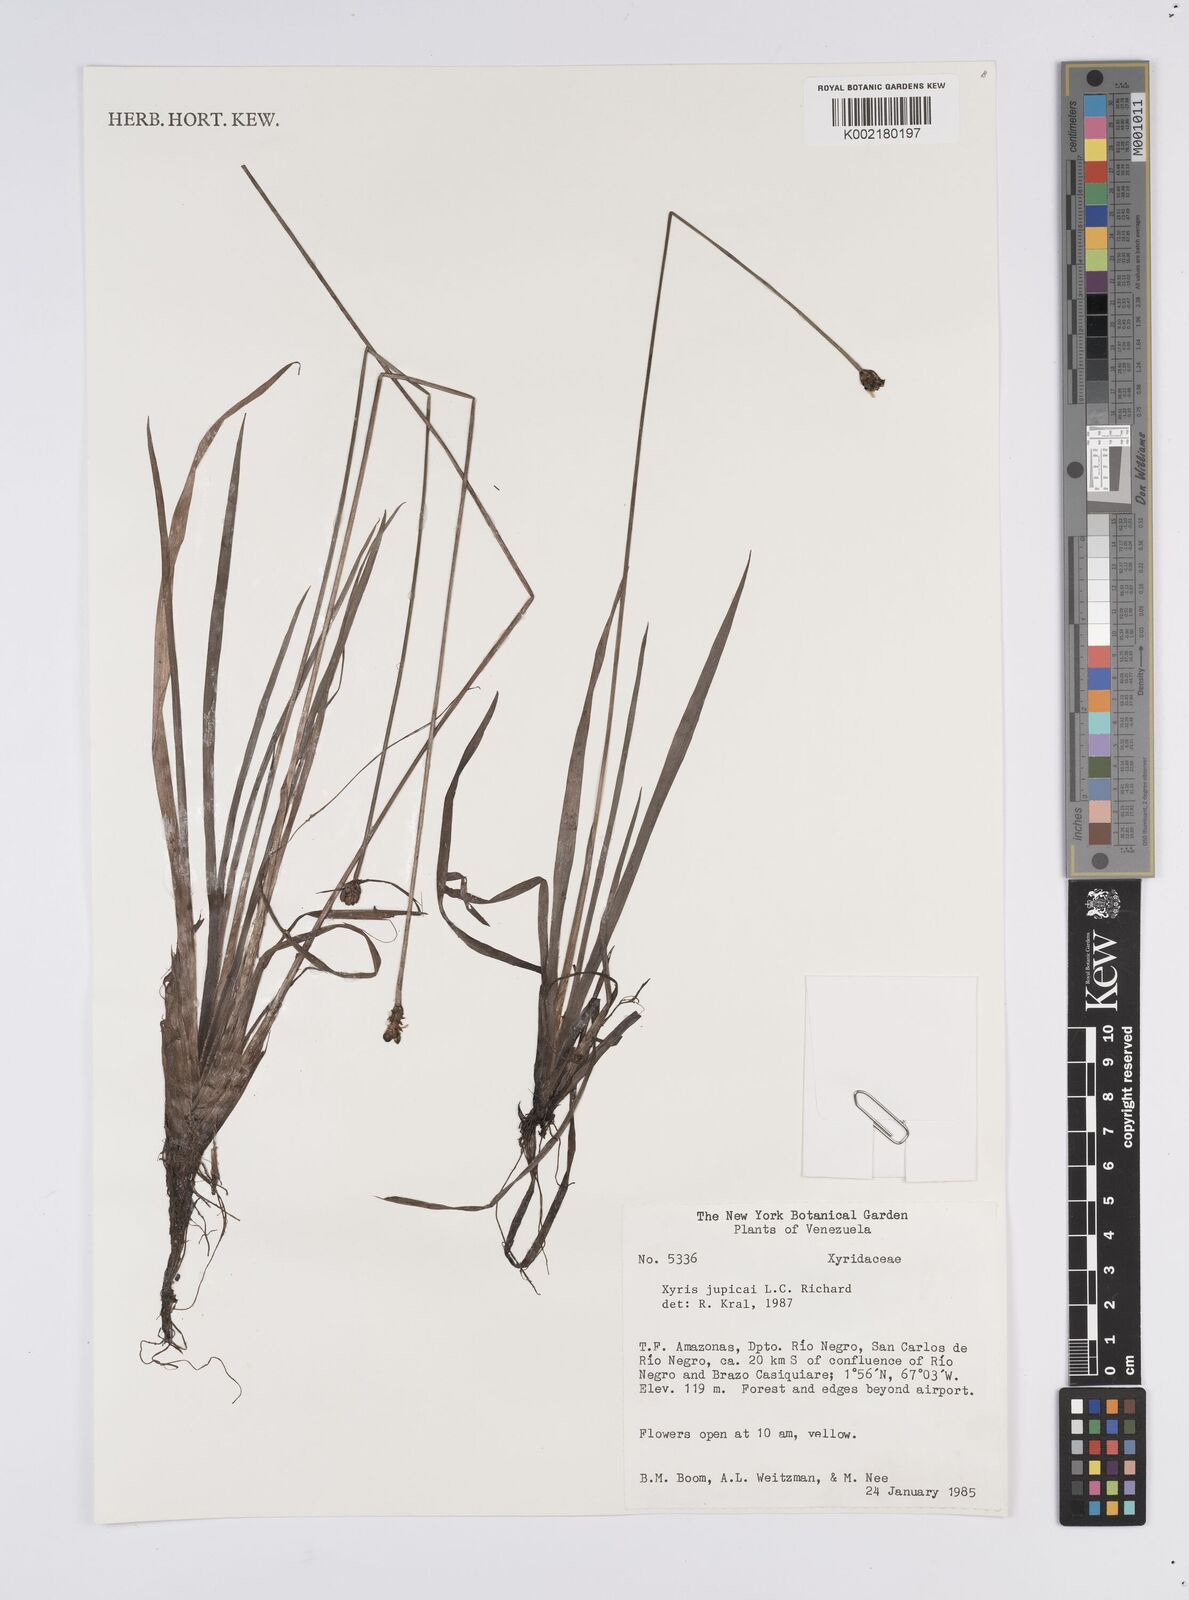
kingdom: Plantae
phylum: Tracheophyta
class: Liliopsida
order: Poales
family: Xyridaceae
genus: Xyris
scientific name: Xyris jupicai
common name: Richard's yelloweyed grass
